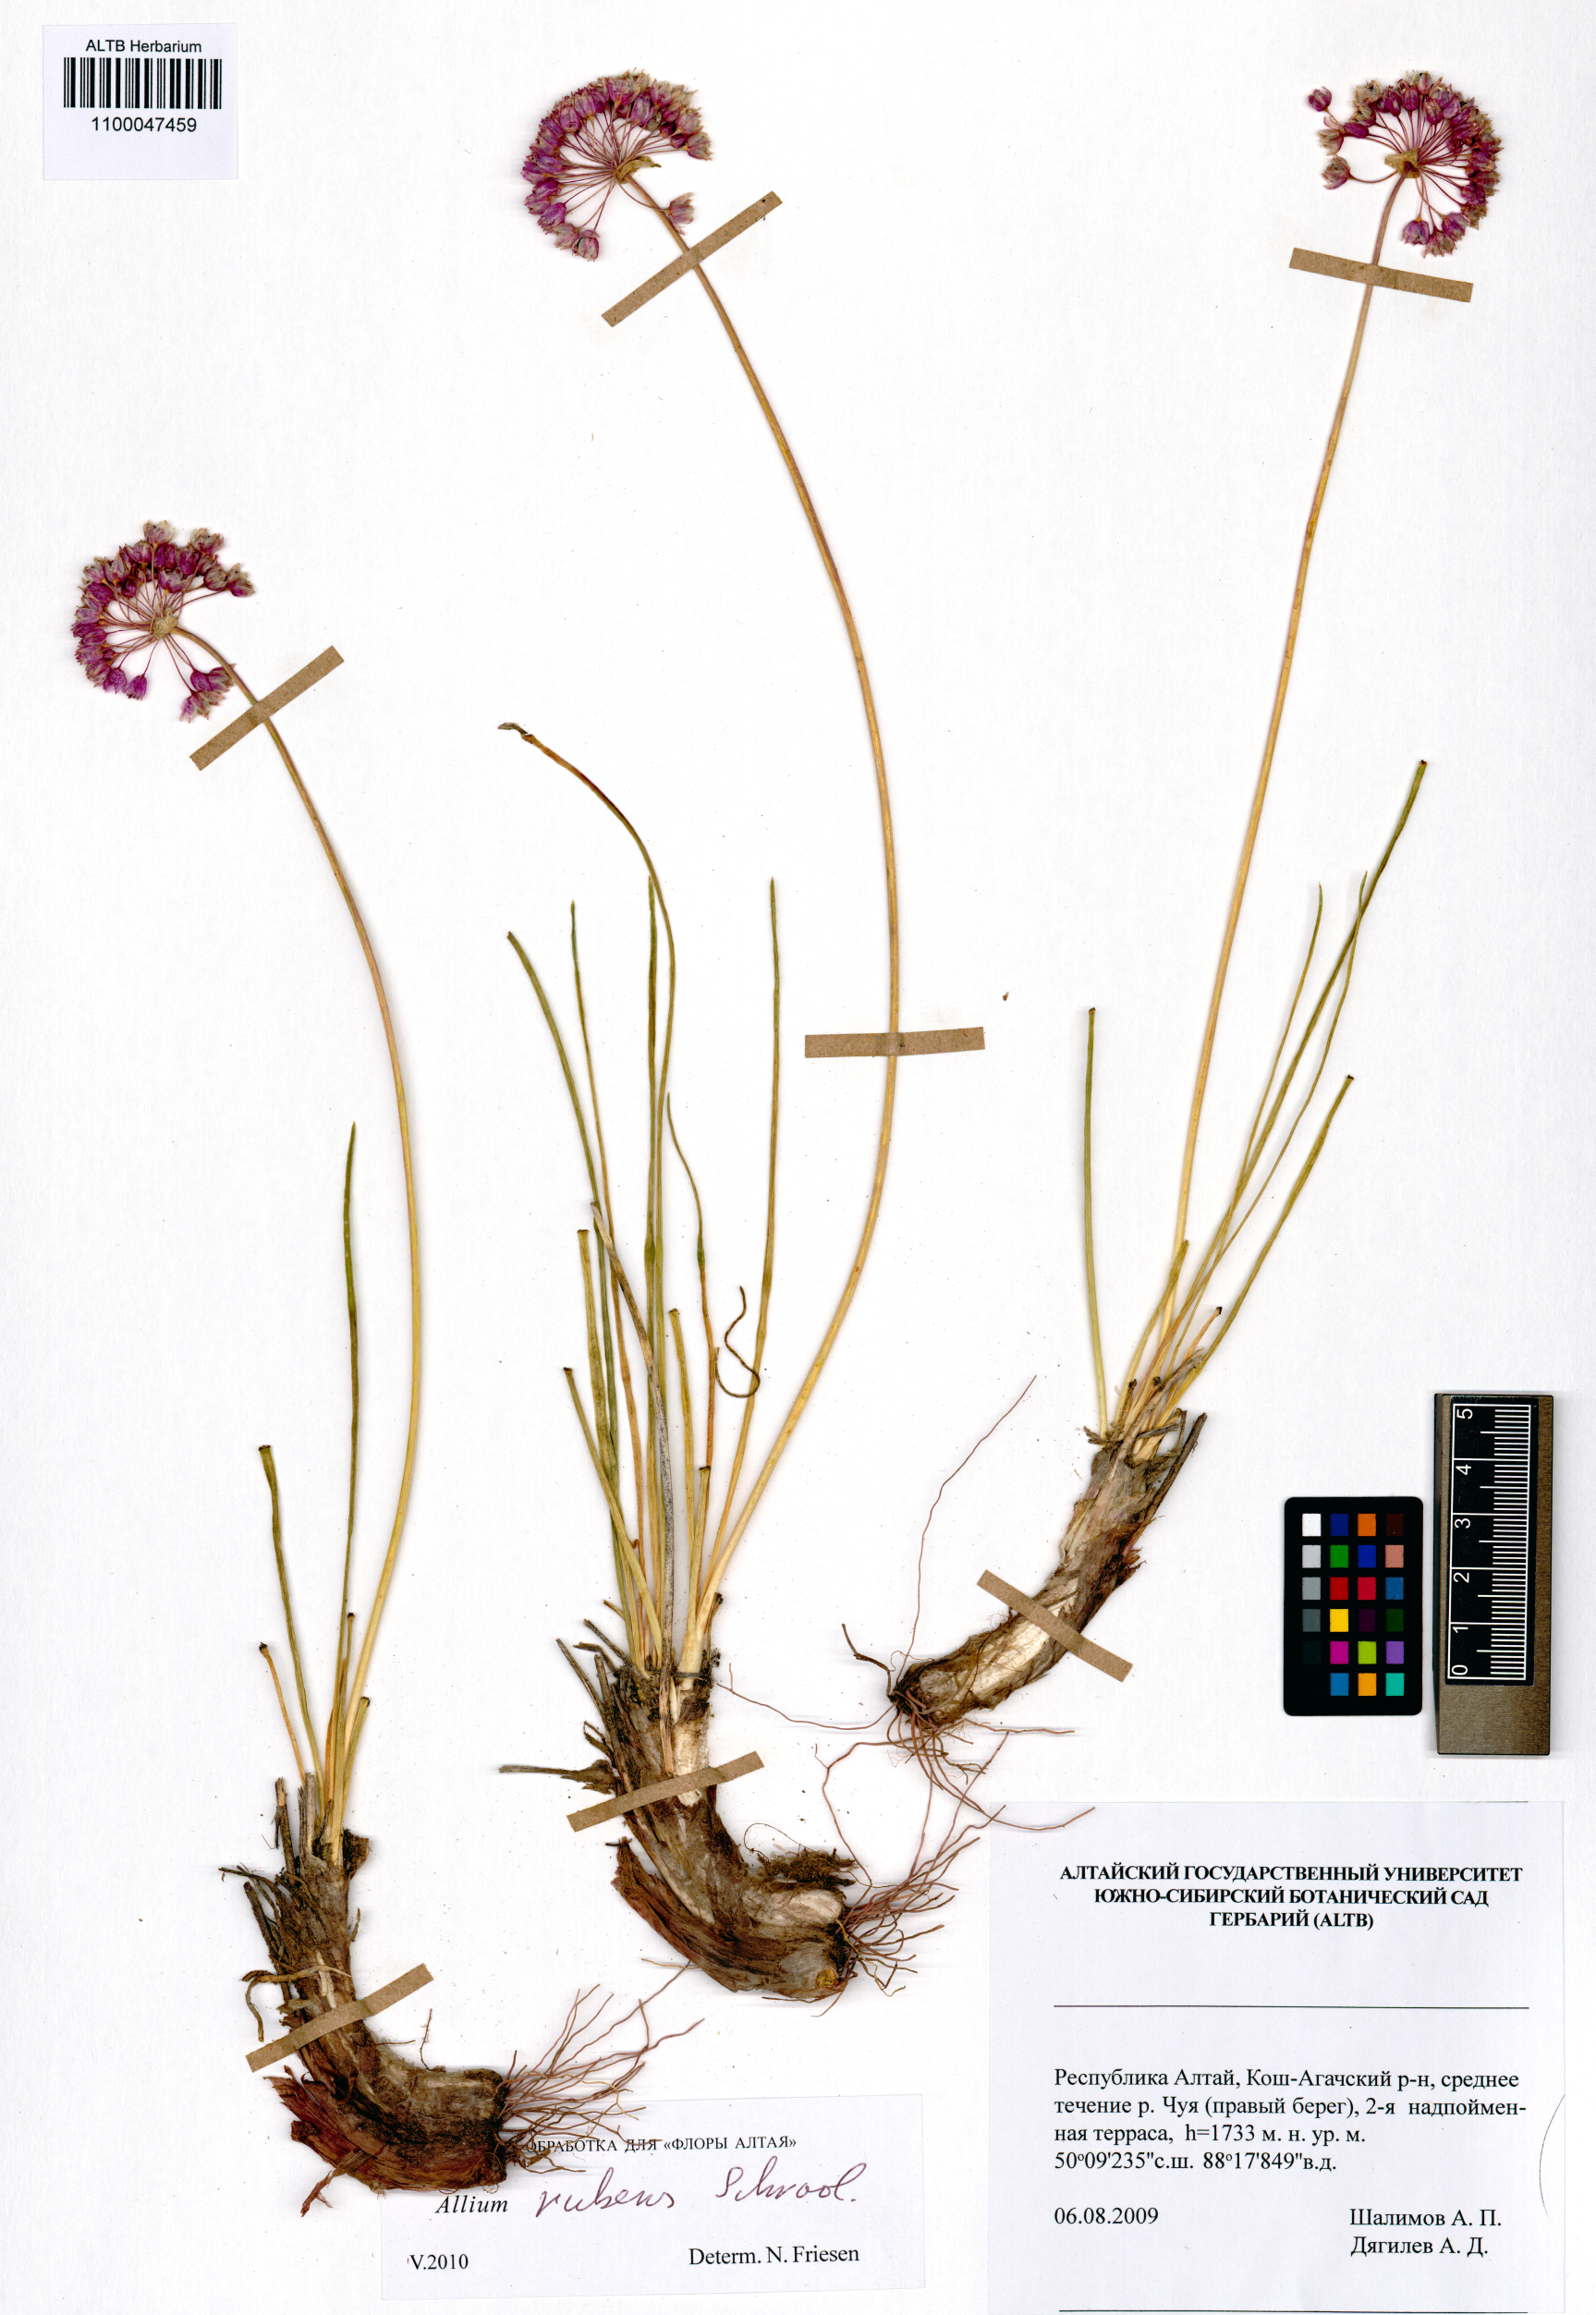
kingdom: Plantae
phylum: Tracheophyta
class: Liliopsida
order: Asparagales
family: Amaryllidaceae
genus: Allium
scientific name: Allium rubens
